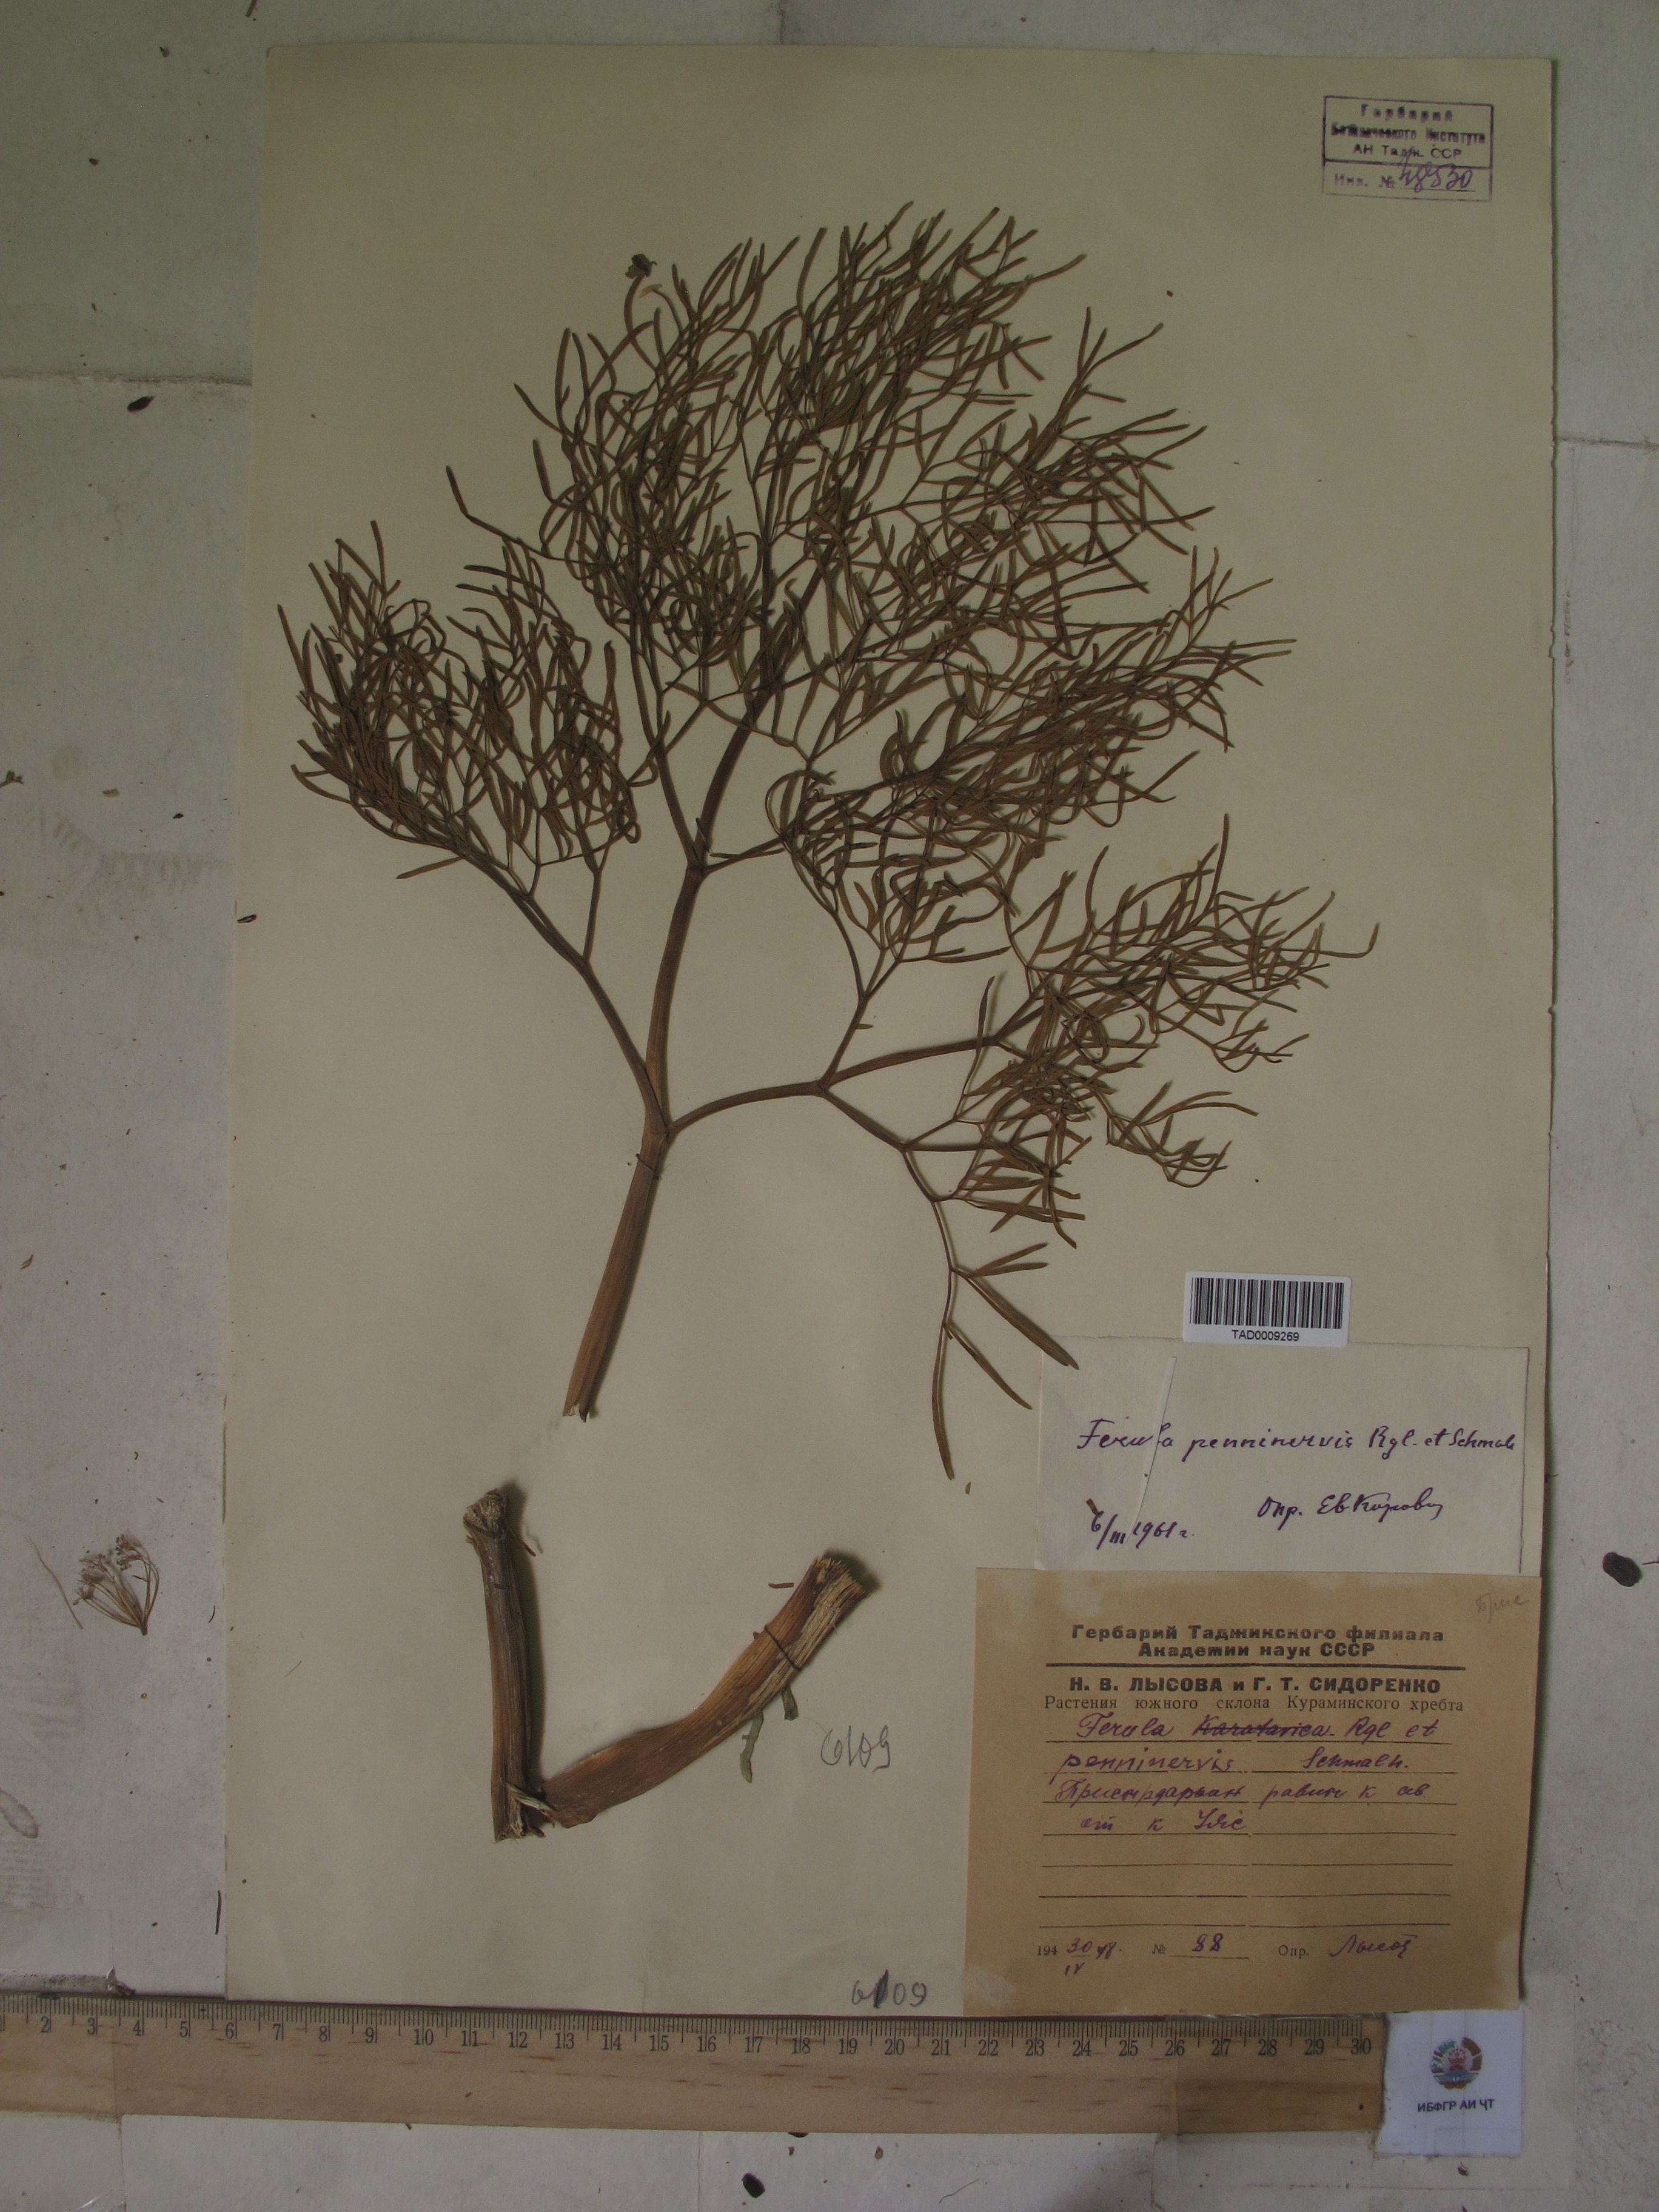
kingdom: Plantae
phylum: Tracheophyta
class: Magnoliopsida
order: Apiales
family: Apiaceae
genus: Ferula
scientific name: Ferula
